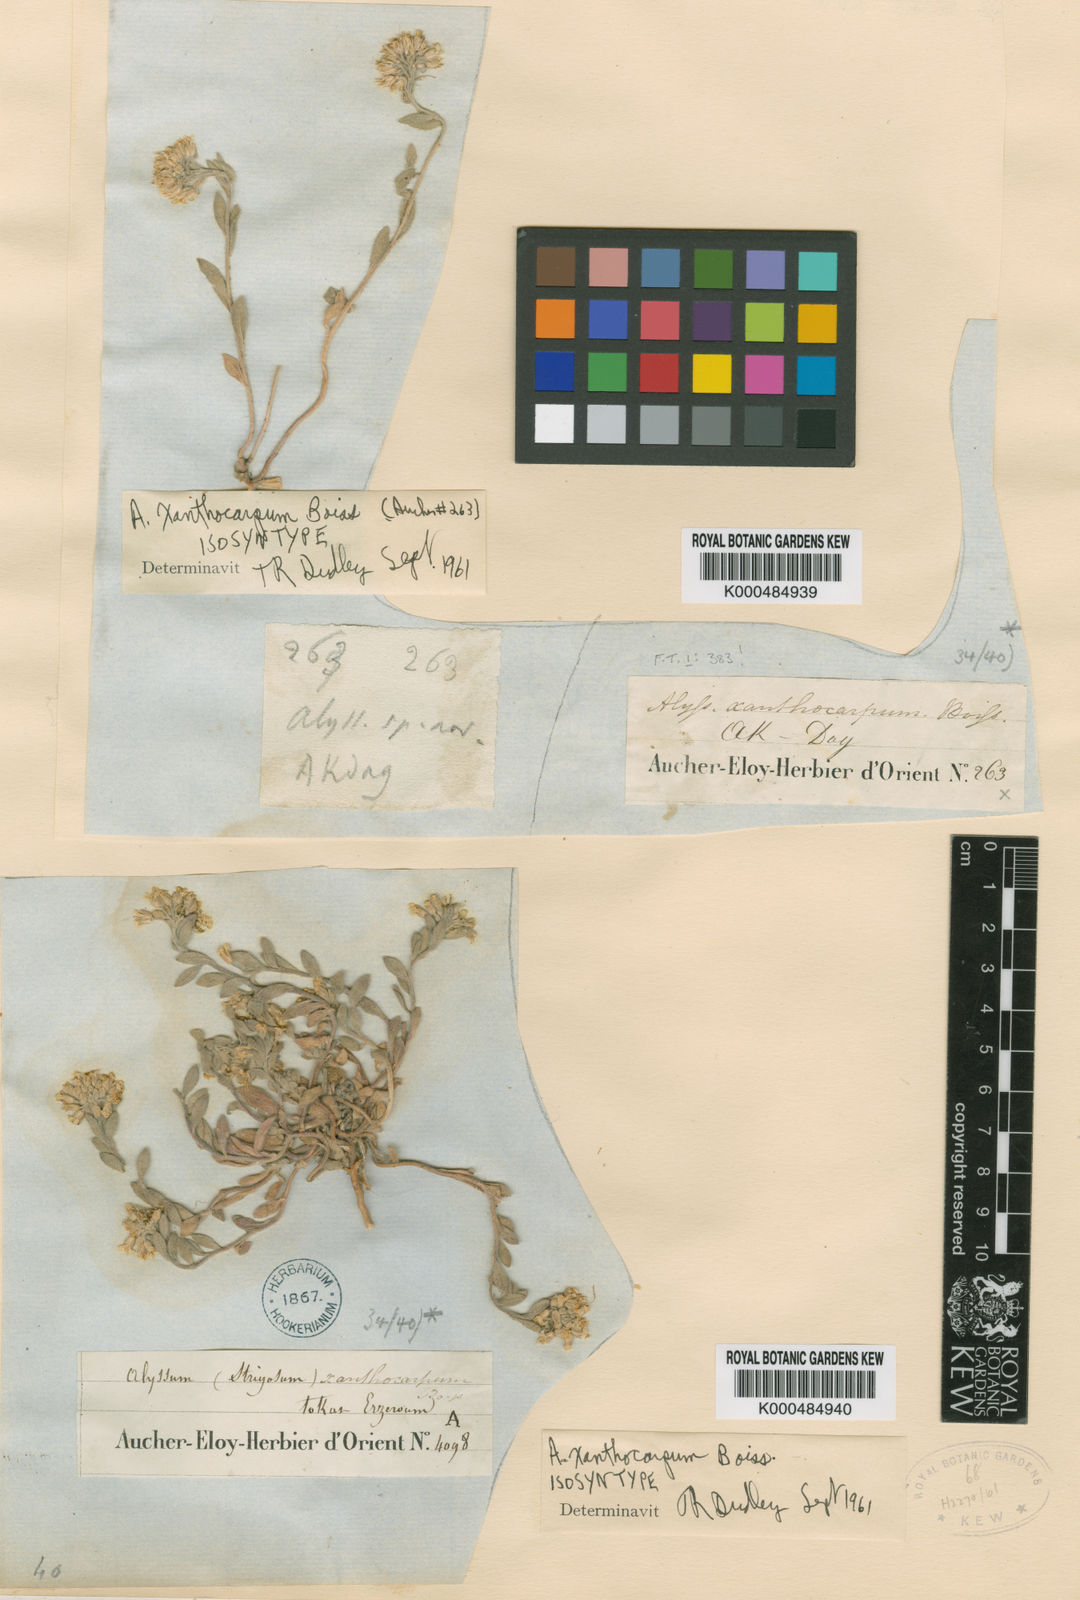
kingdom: Plantae
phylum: Tracheophyta
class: Magnoliopsida
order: Brassicales
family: Brassicaceae
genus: Alyssum
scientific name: Alyssum xanthocarpum
